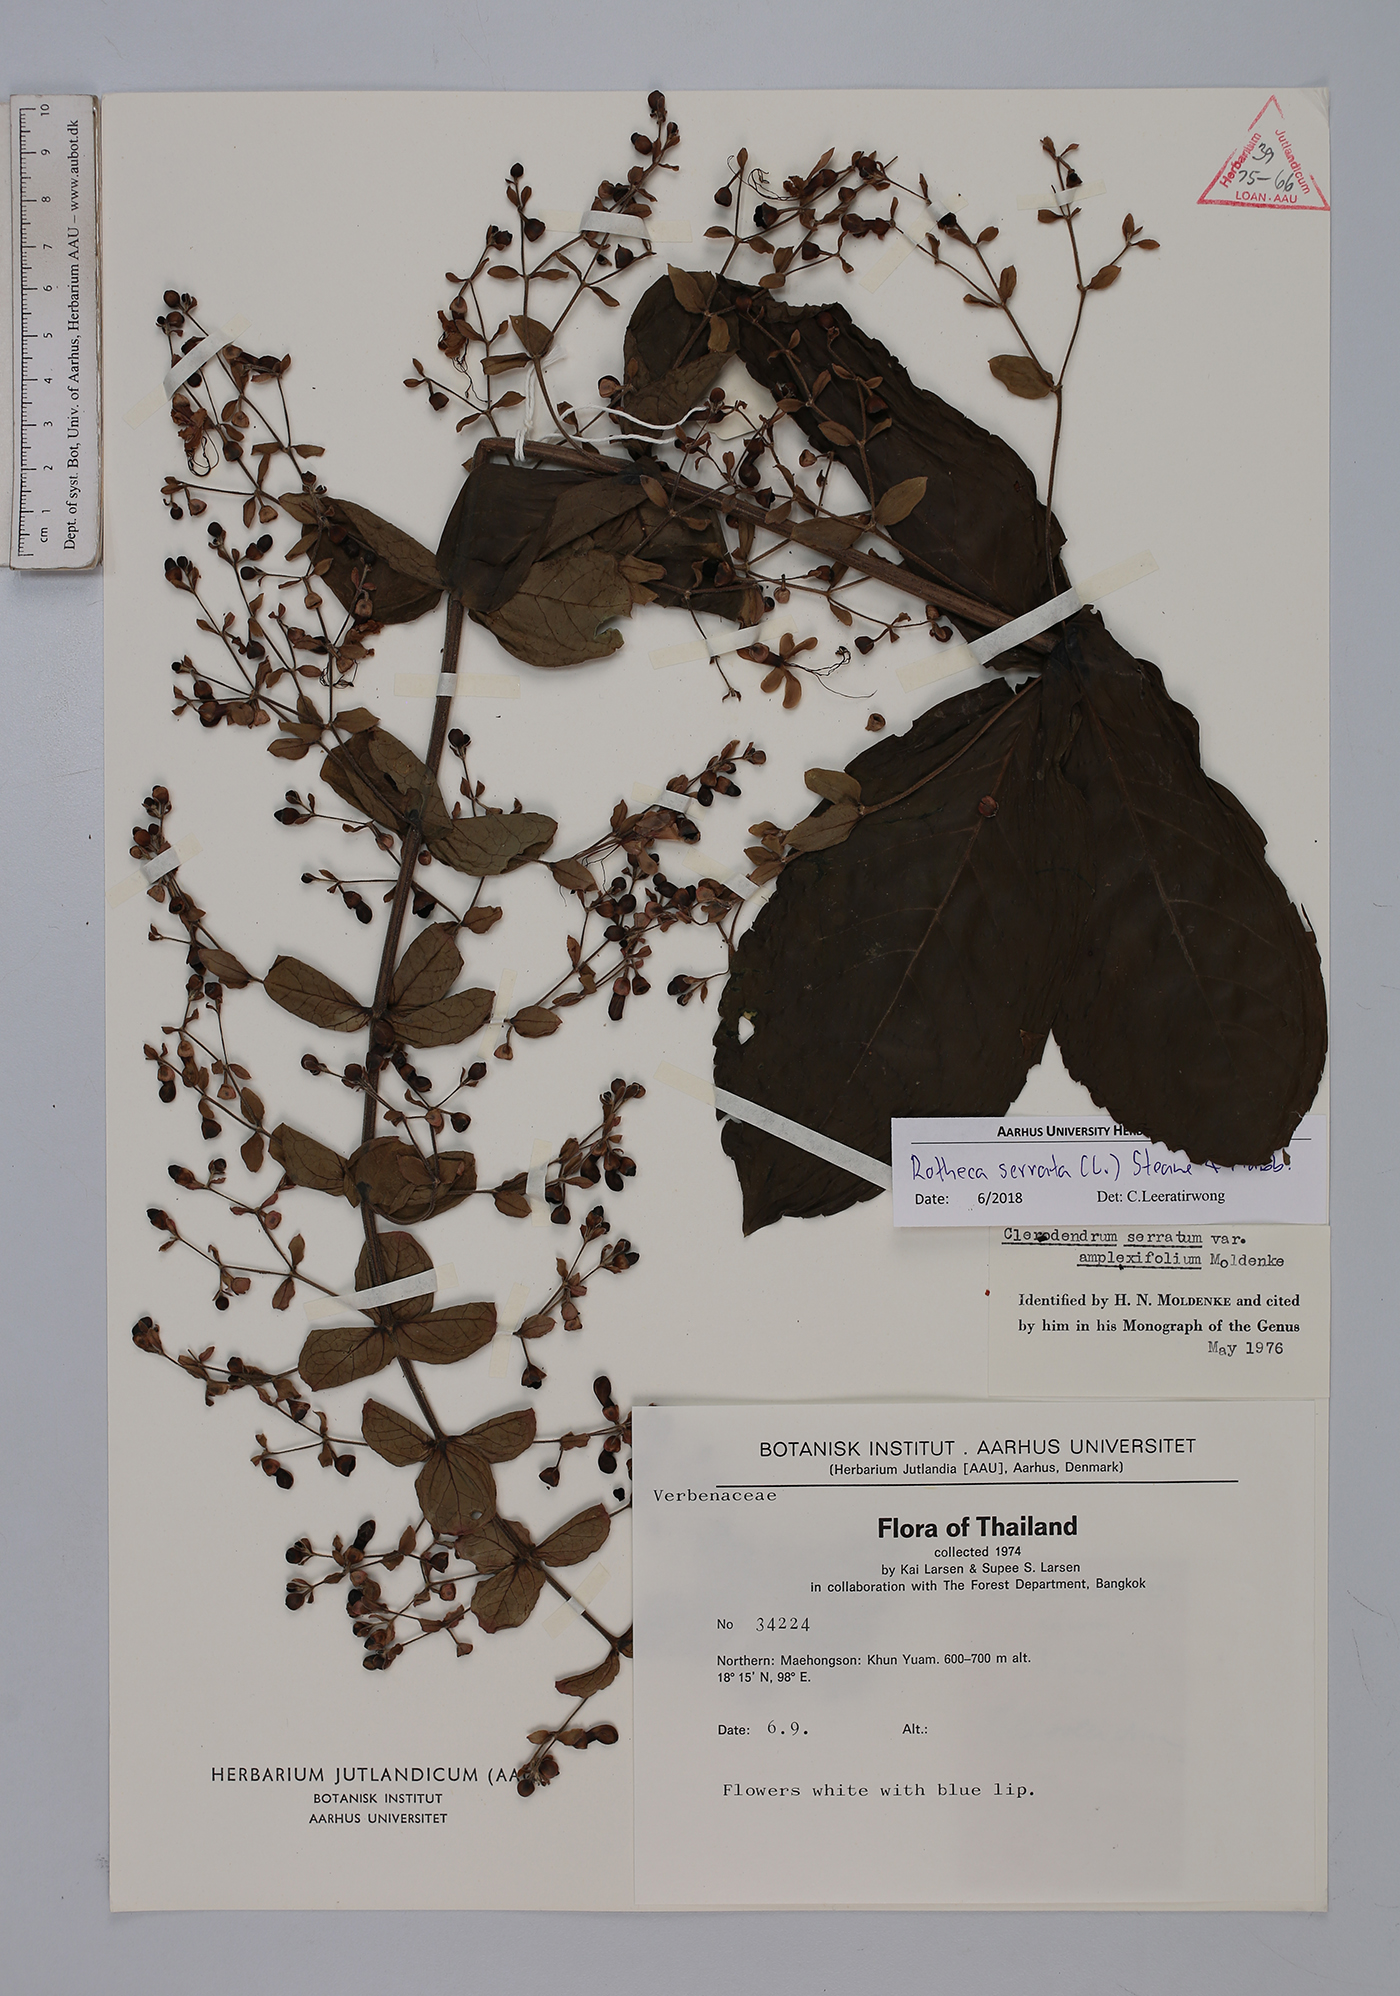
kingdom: Plantae
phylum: Tracheophyta
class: Magnoliopsida
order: Lamiales
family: Lamiaceae
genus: Rotheca
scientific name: Rotheca serrata
